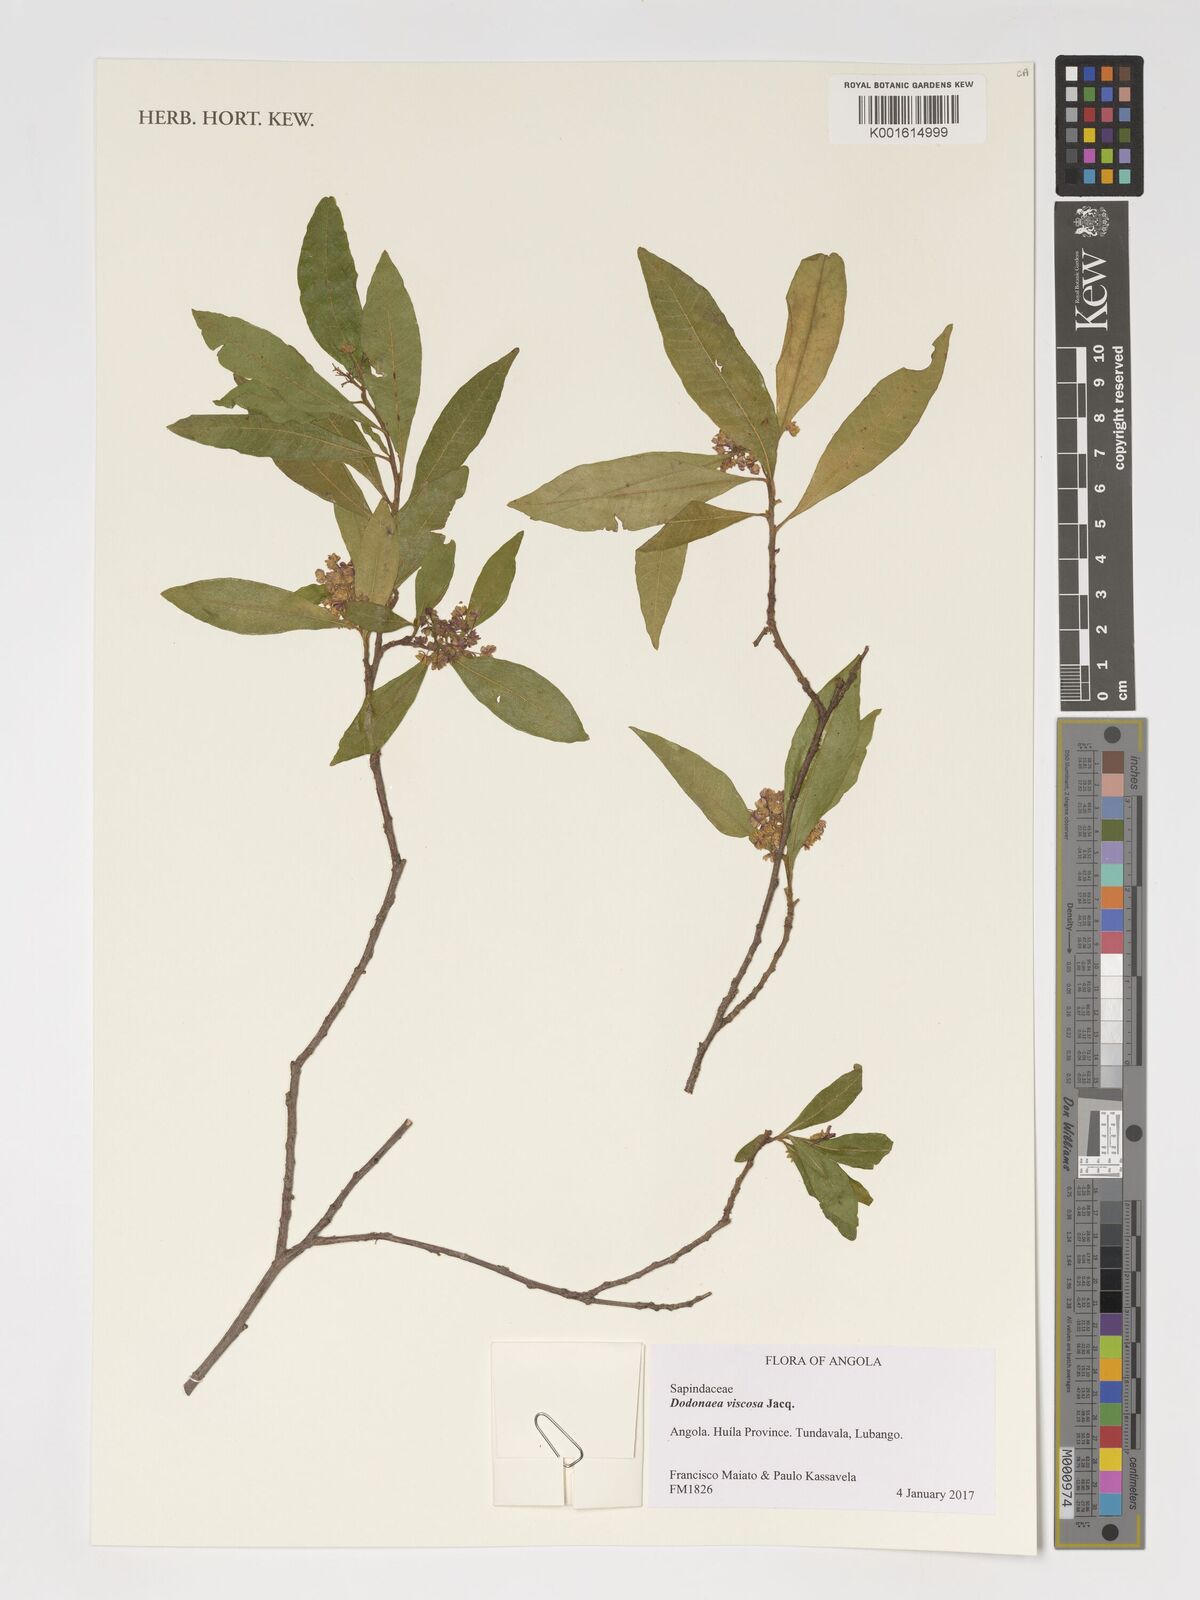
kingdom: Plantae
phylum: Tracheophyta
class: Magnoliopsida
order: Sapindales
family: Sapindaceae
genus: Dodonaea
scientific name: Dodonaea viscosa
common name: Hopbush
